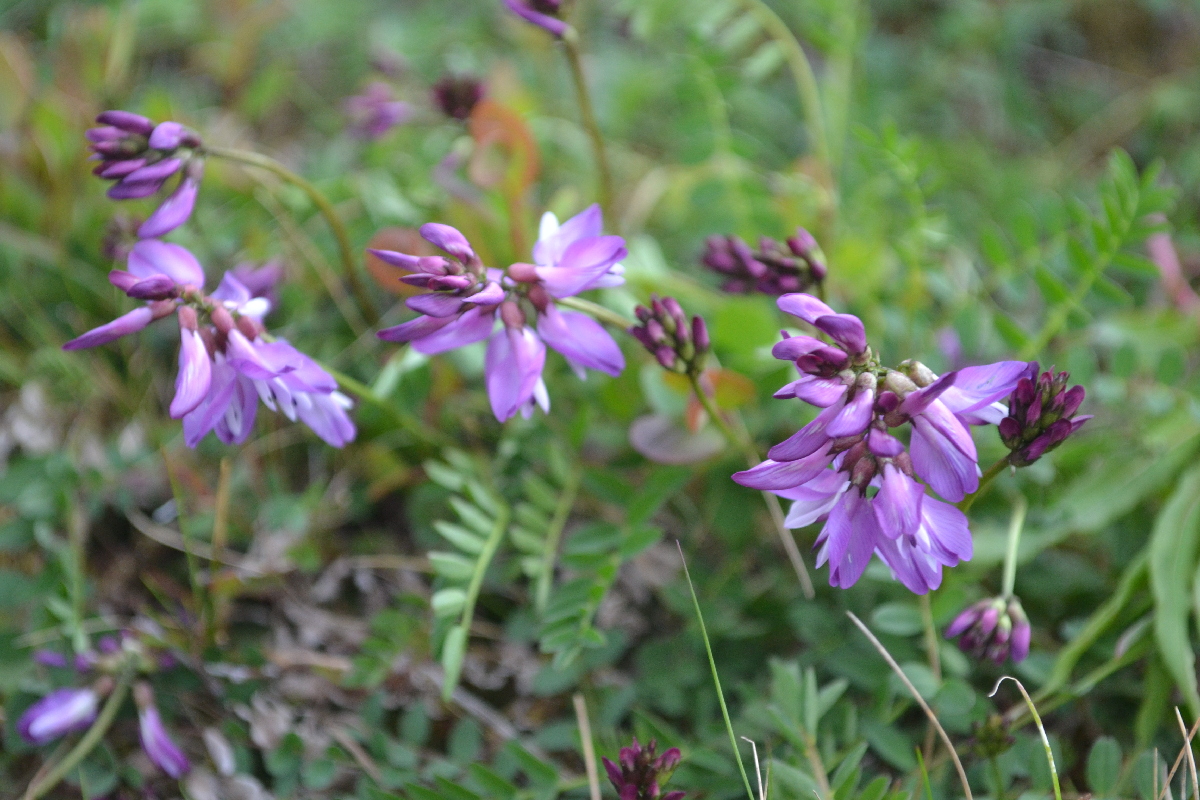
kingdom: Plantae
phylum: Tracheophyta
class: Magnoliopsida
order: Fabales
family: Fabaceae
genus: Astragalus
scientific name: Astragalus norvegicus
